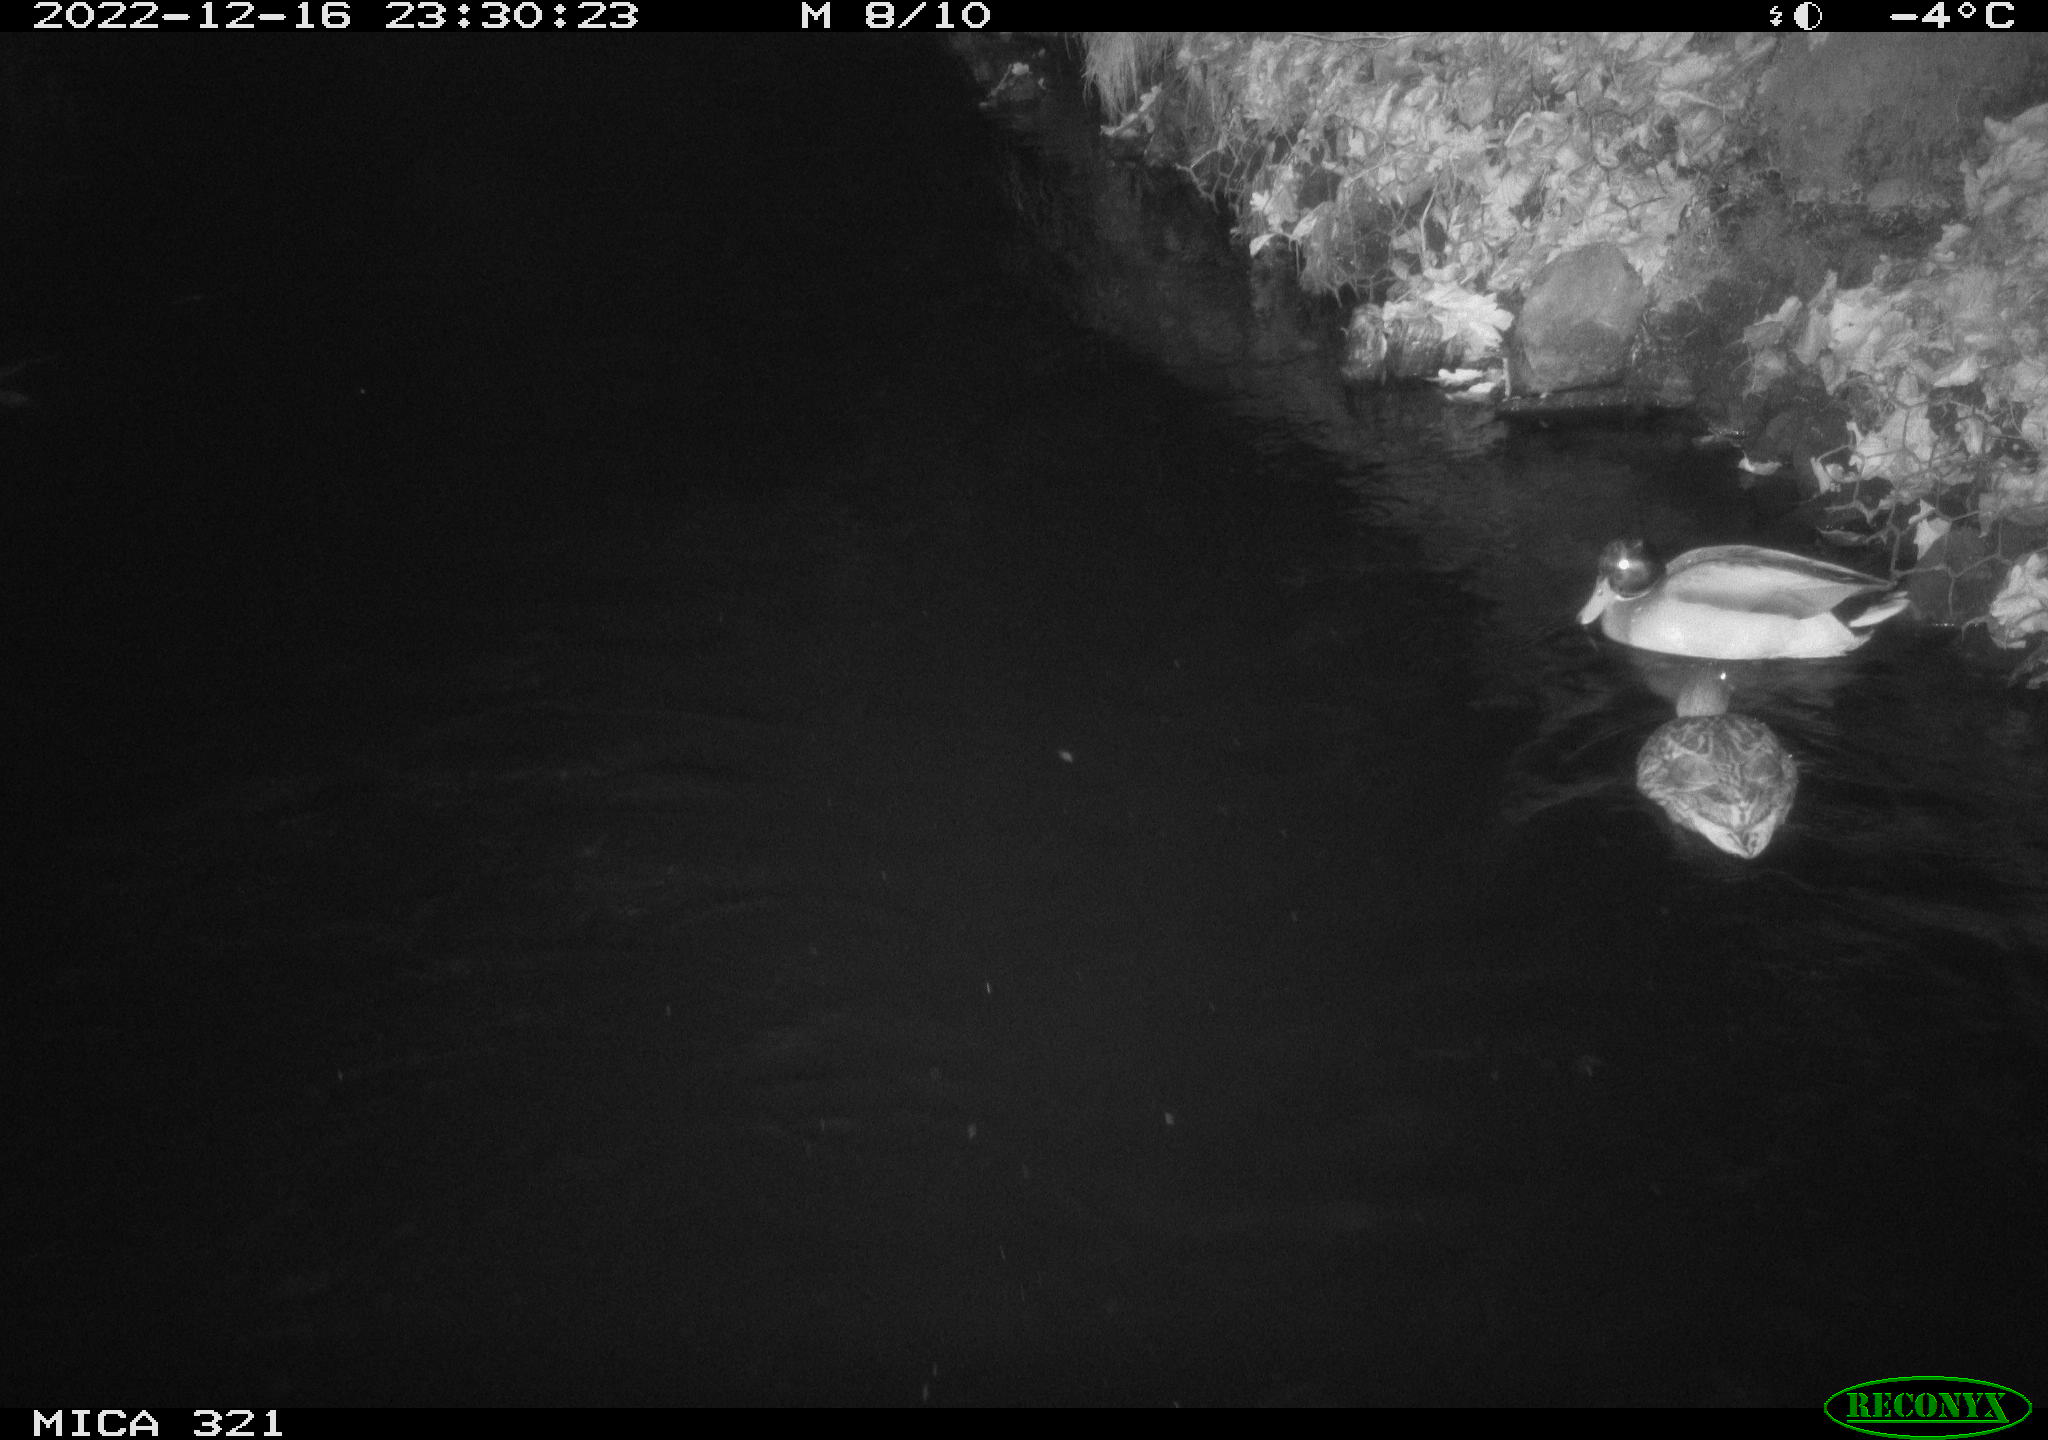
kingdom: Animalia
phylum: Chordata
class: Aves
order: Anseriformes
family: Anatidae
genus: Anas
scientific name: Anas
